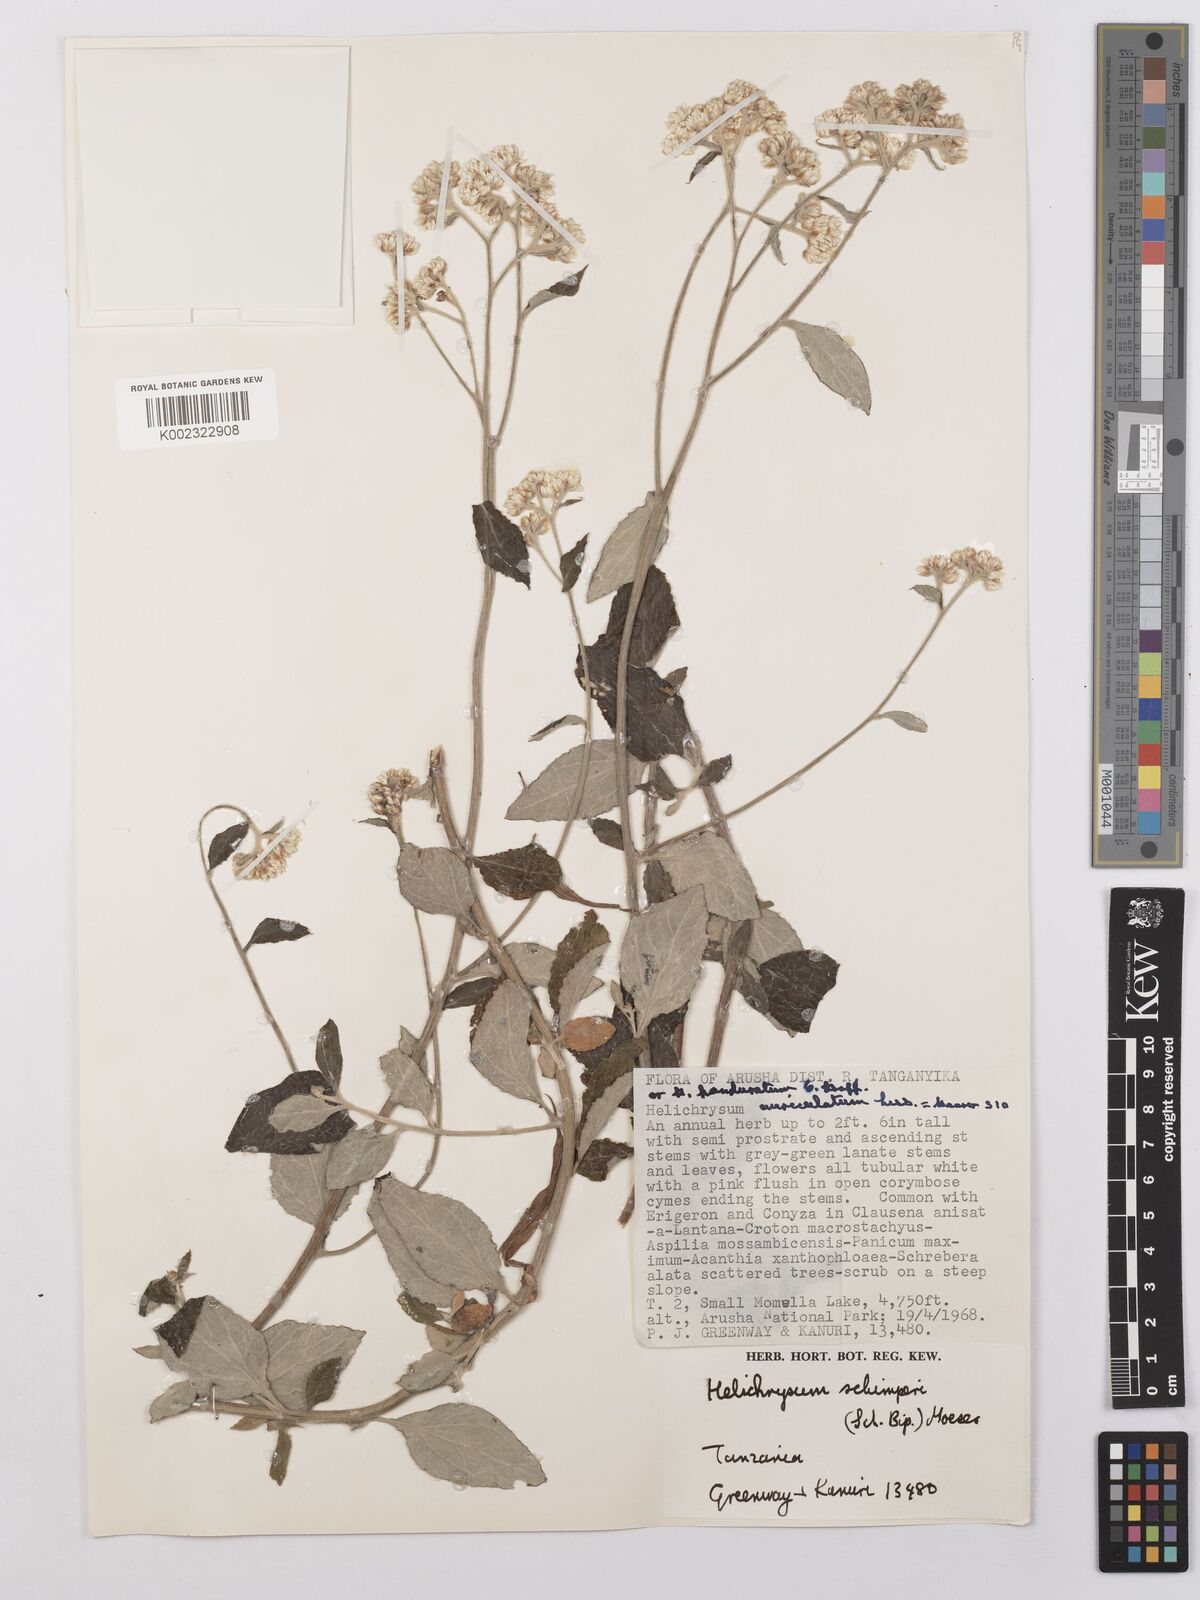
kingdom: Plantae
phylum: Tracheophyta
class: Magnoliopsida
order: Asterales
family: Asteraceae
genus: Helichrysum
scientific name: Helichrysum schimperi
